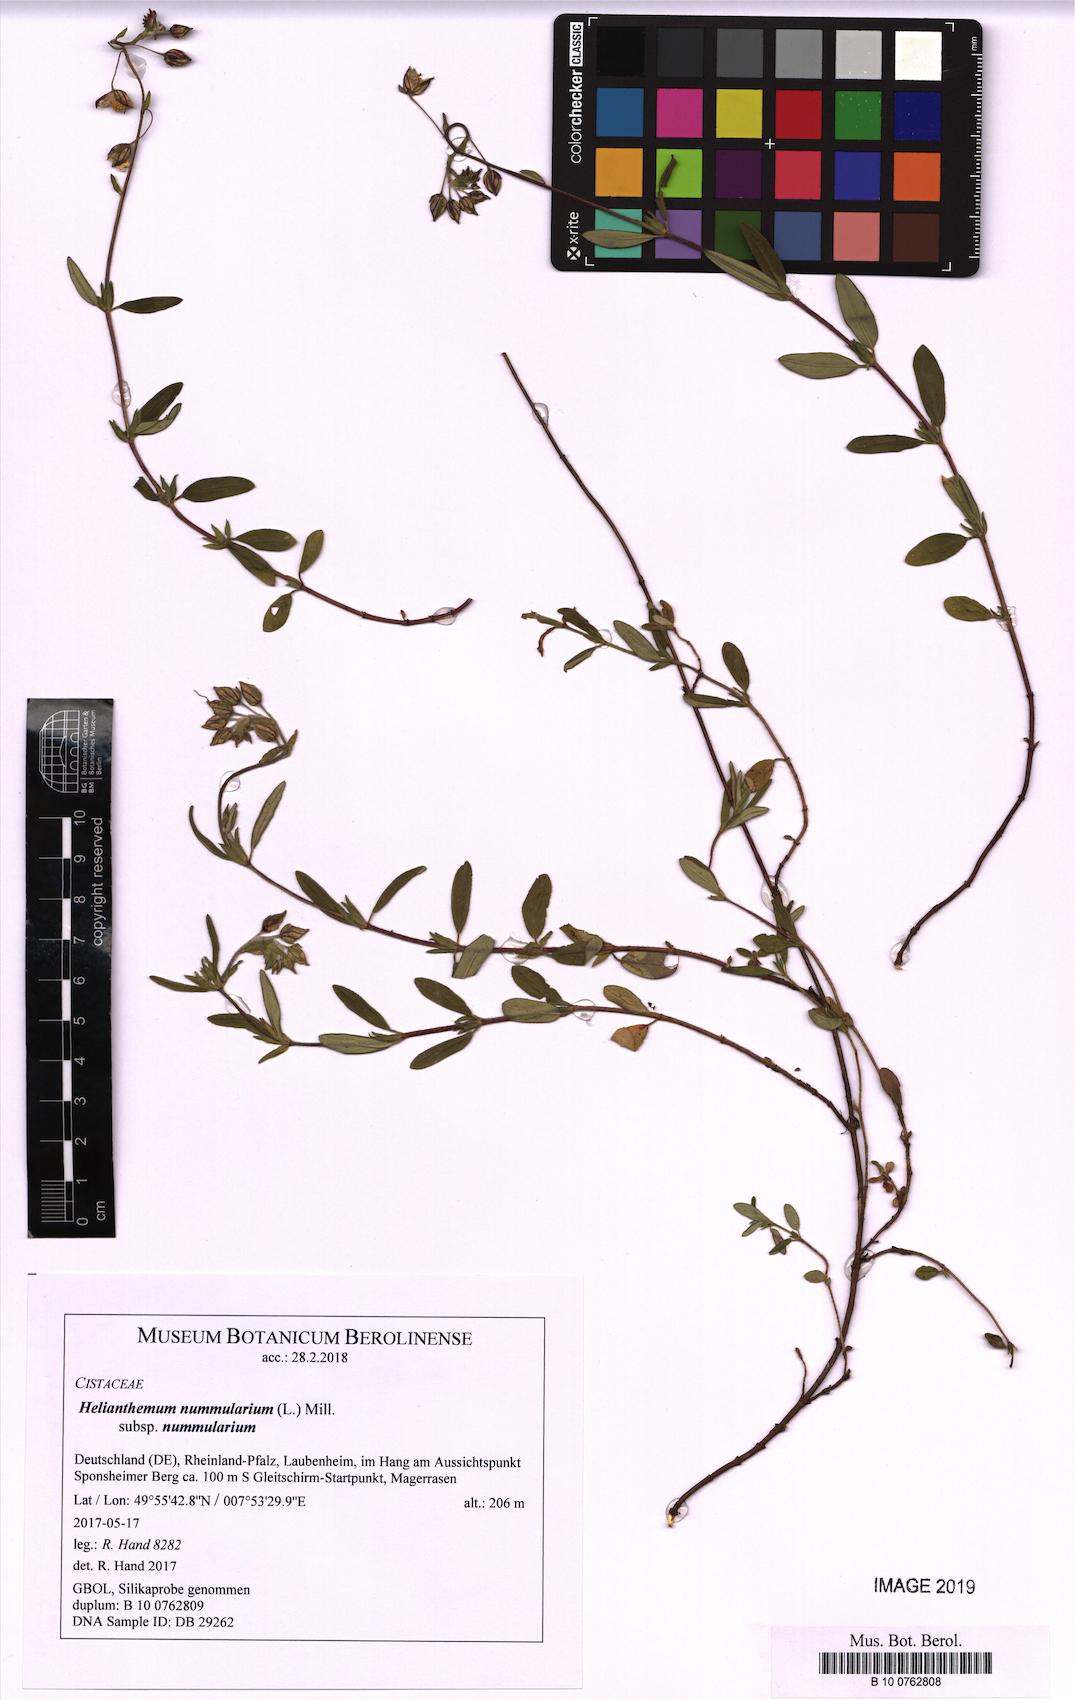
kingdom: Plantae
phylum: Tracheophyta
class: Magnoliopsida
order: Malvales
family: Cistaceae
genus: Helianthemum
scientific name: Helianthemum nummularium
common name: Common rock-rose
